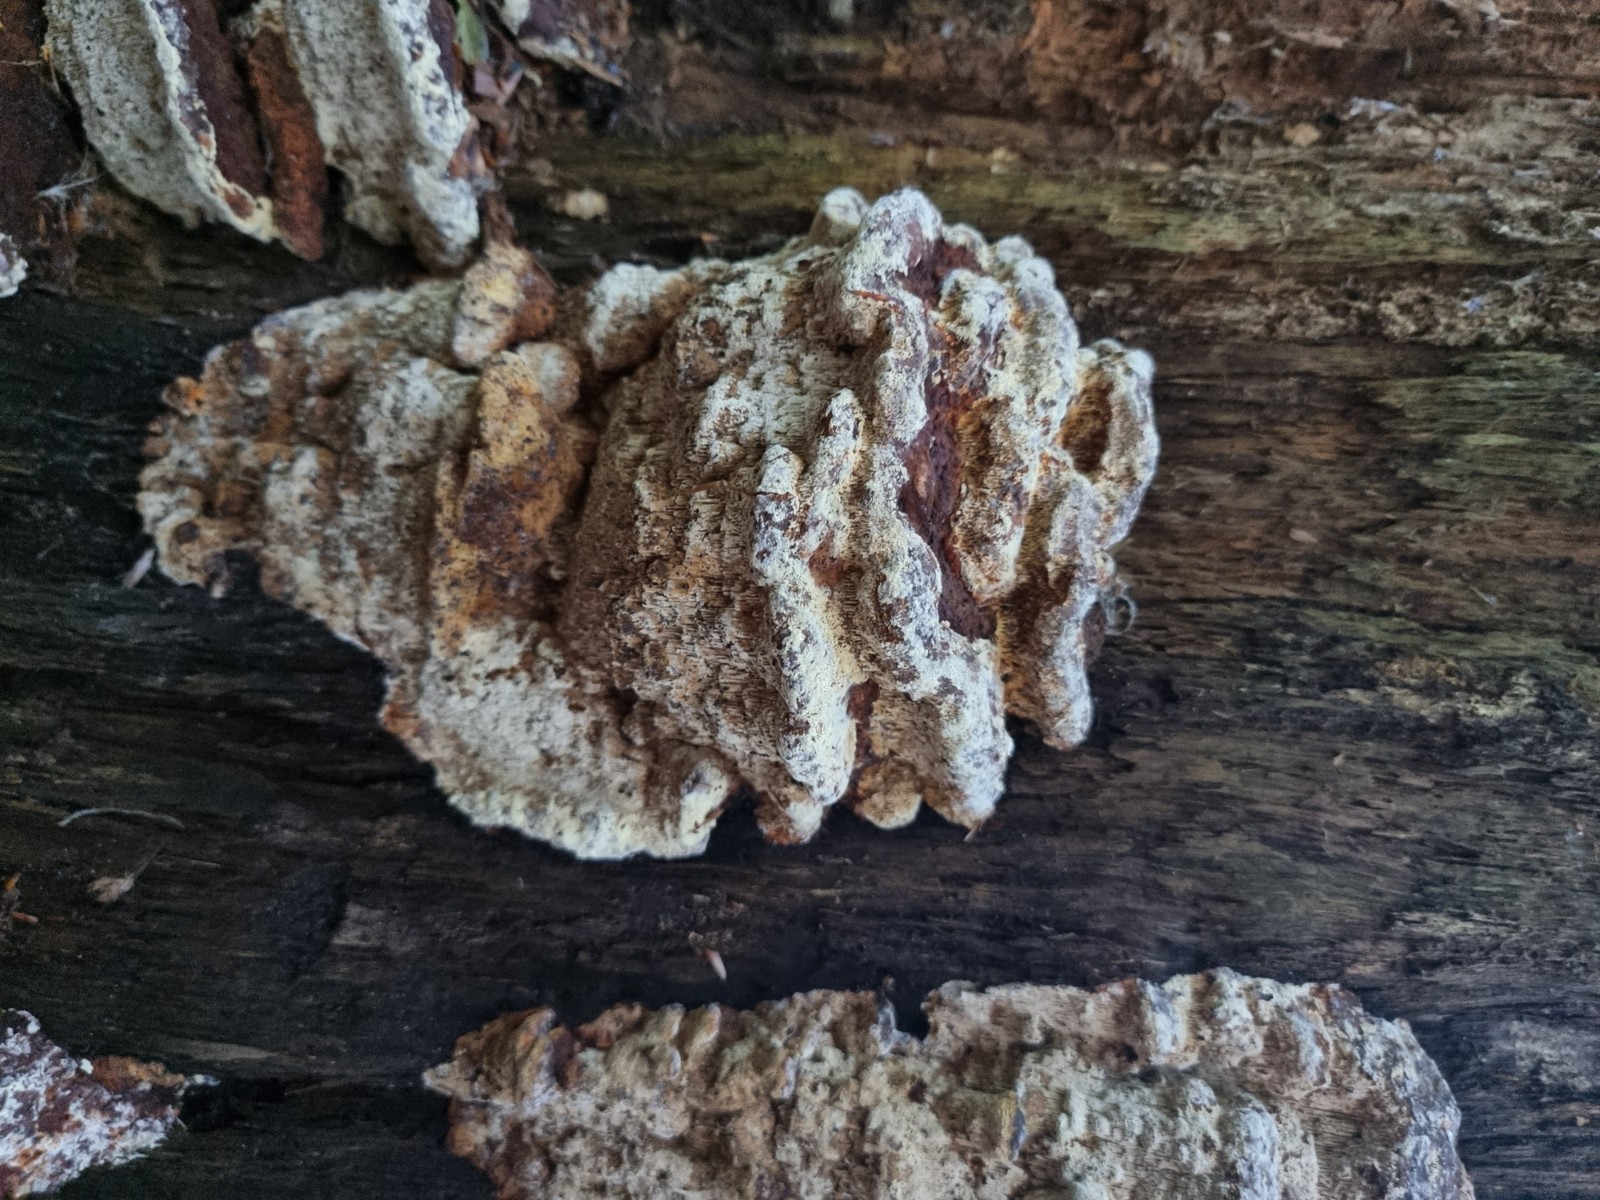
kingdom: Fungi
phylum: Basidiomycota
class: Agaricomycetes
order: Polyporales
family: Polyporaceae
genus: Daedaleopsis
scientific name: Daedaleopsis confragosa
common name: rødmende læderporesvamp
